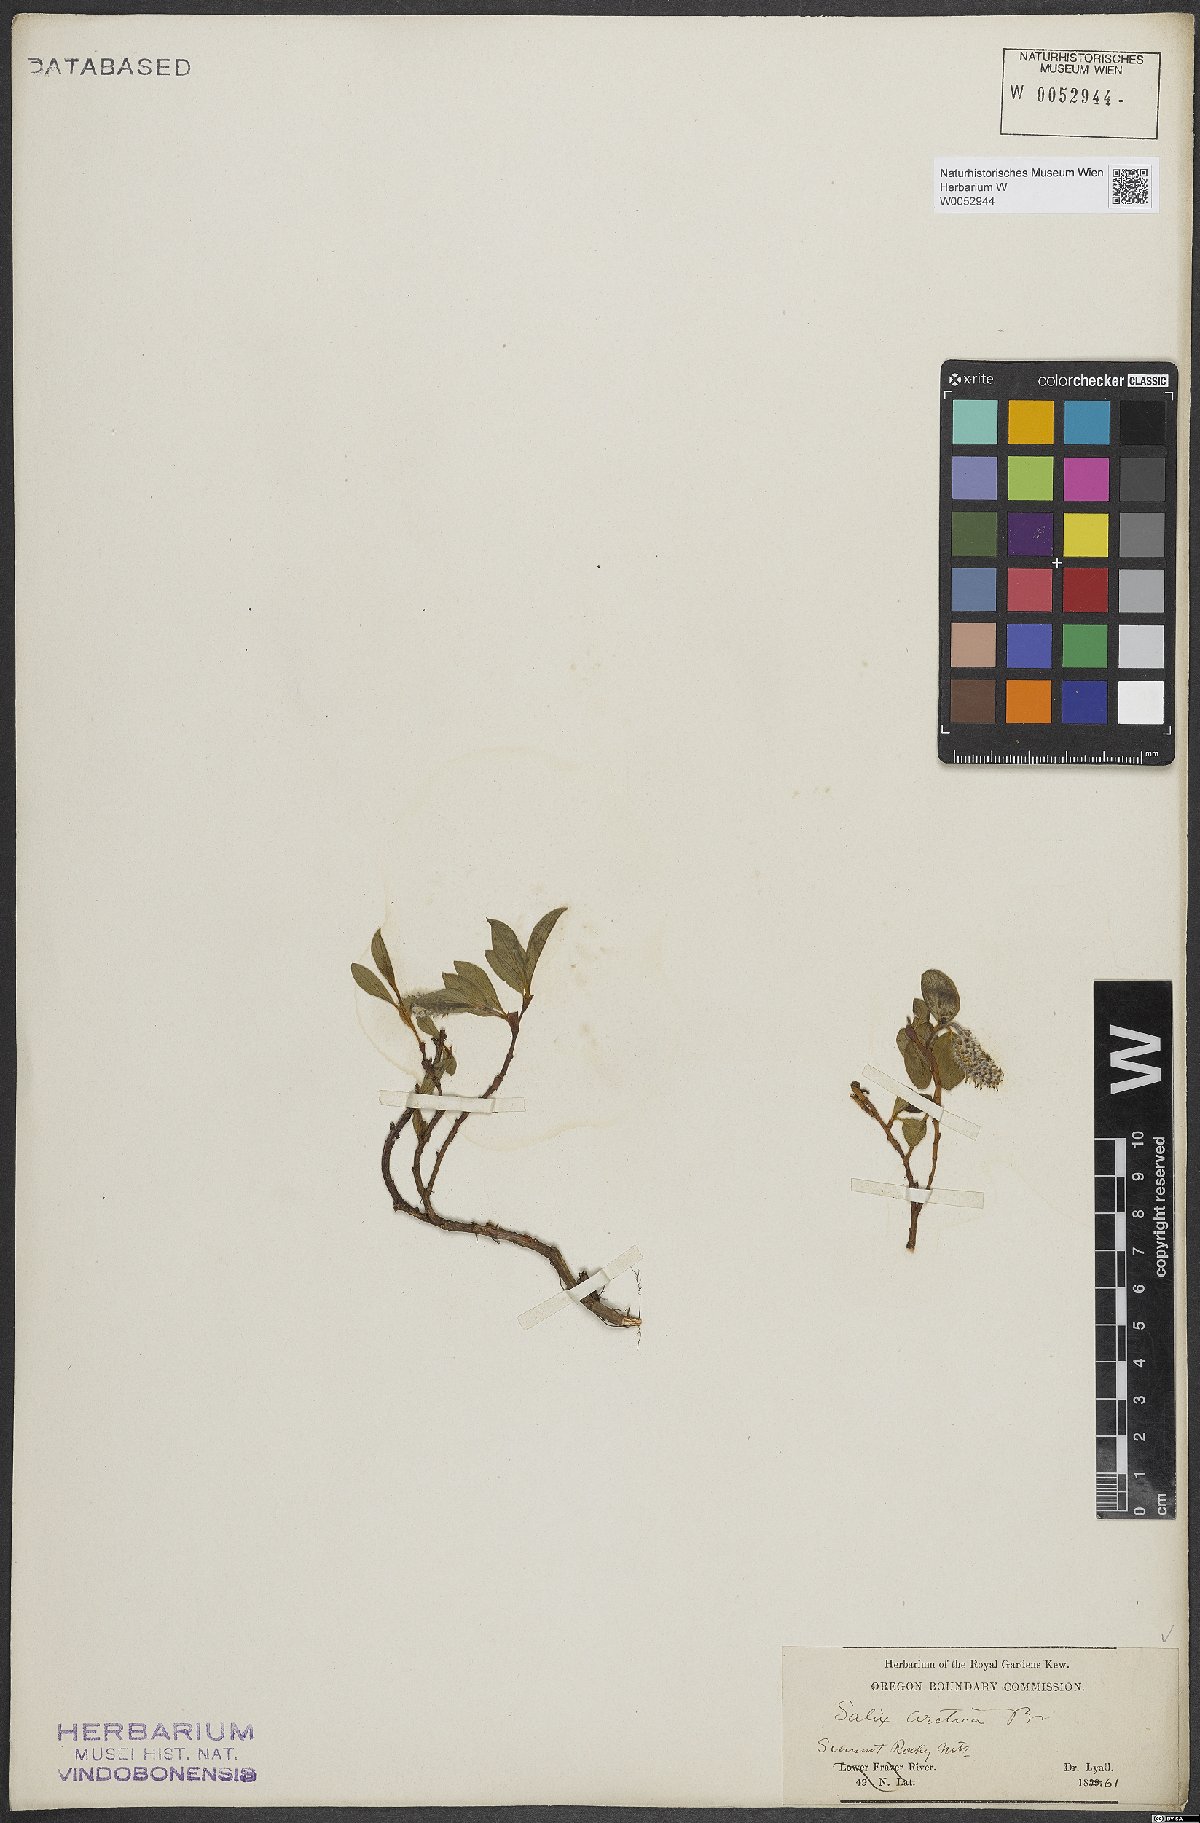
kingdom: Plantae
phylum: Tracheophyta
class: Magnoliopsida
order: Malpighiales
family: Salicaceae
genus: Salix
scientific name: Salix arctica
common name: Arctic willow
